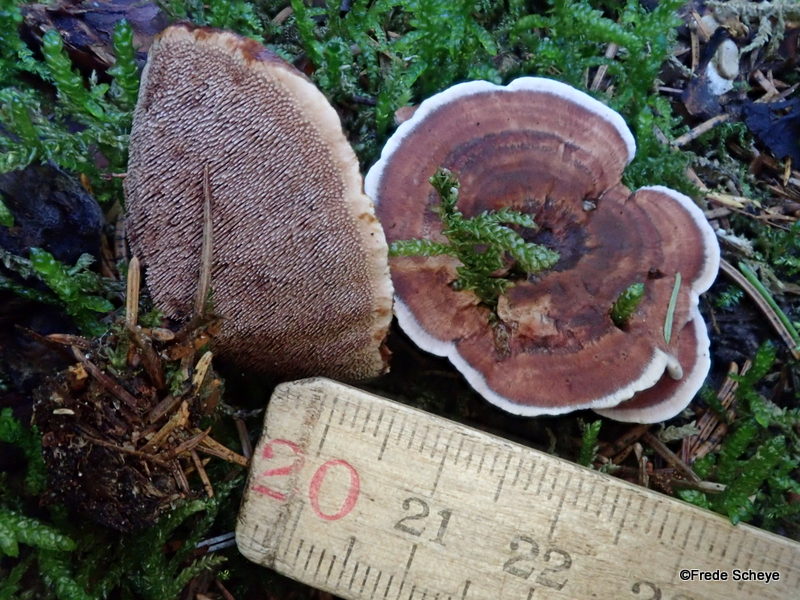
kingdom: Fungi
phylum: Basidiomycota
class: Agaricomycetes
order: Thelephorales
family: Bankeraceae
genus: Hydnellum
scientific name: Hydnellum concrescens
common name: bæltet korkpigsvamp
